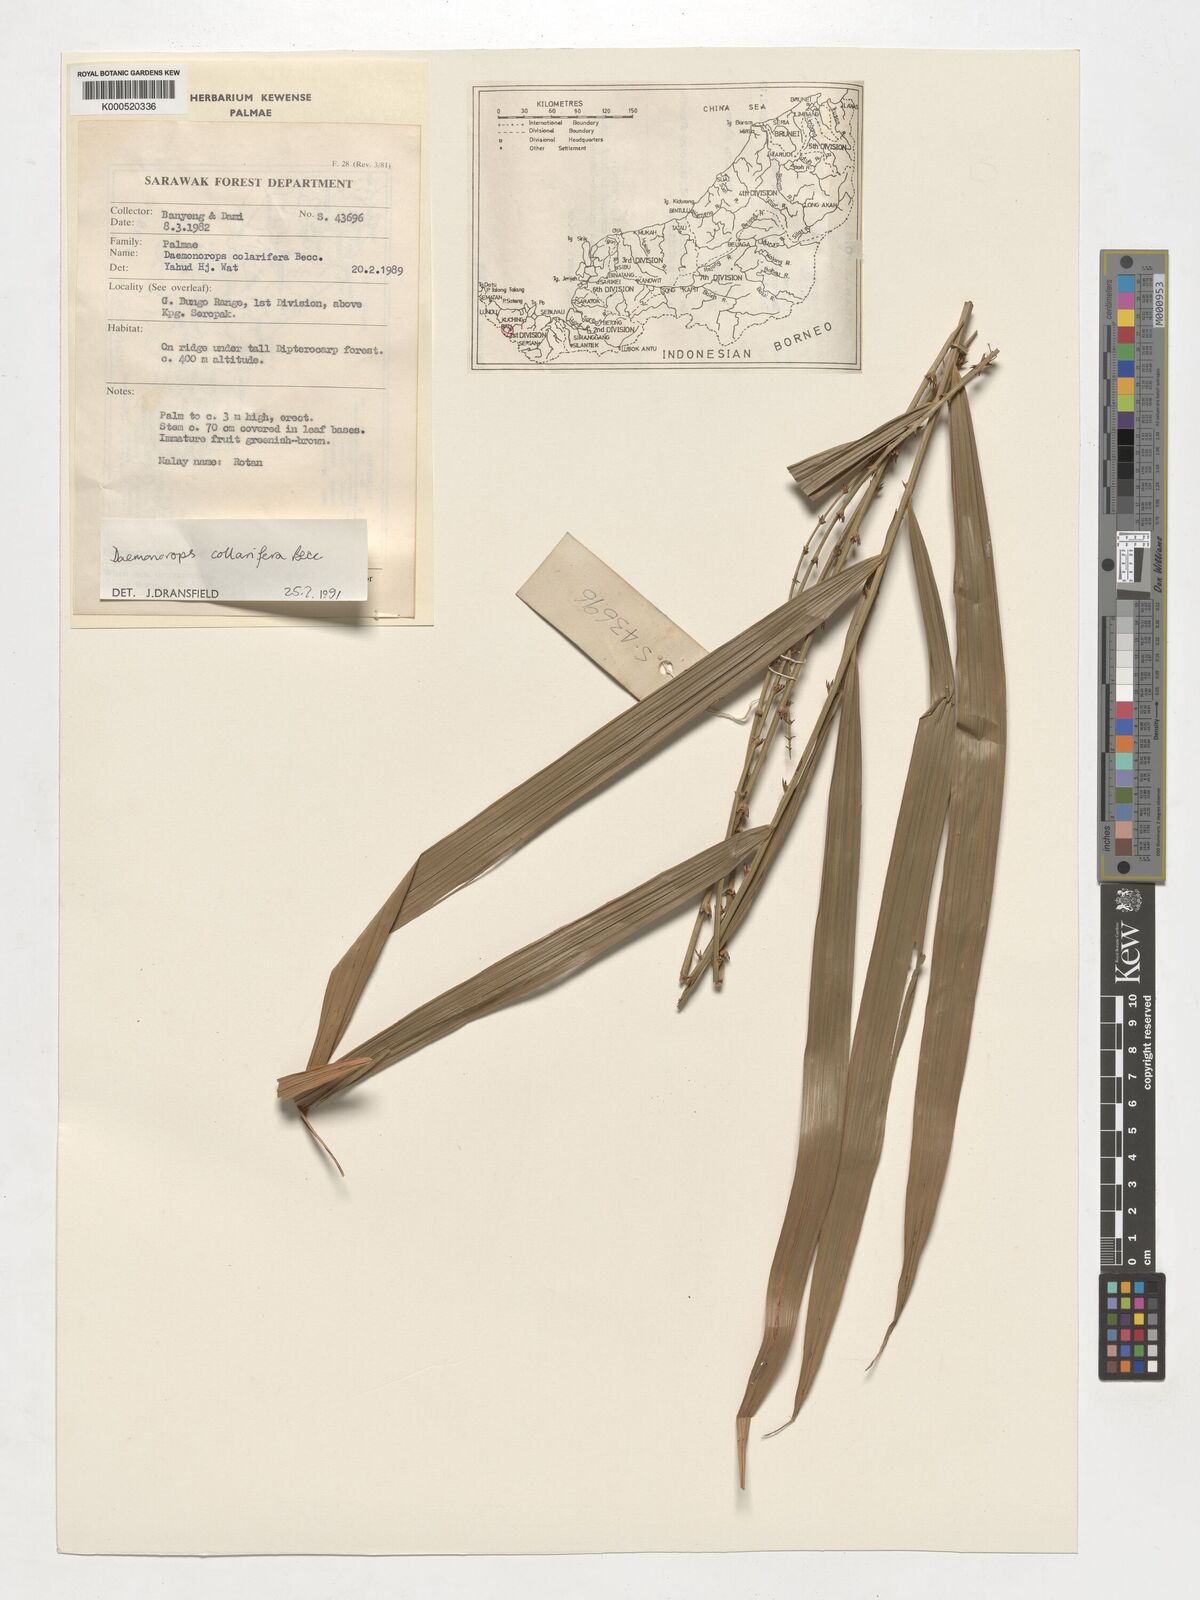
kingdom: Plantae
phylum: Tracheophyta
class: Liliopsida
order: Arecales
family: Arecaceae
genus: Calamus
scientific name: Calamus geniculatus
